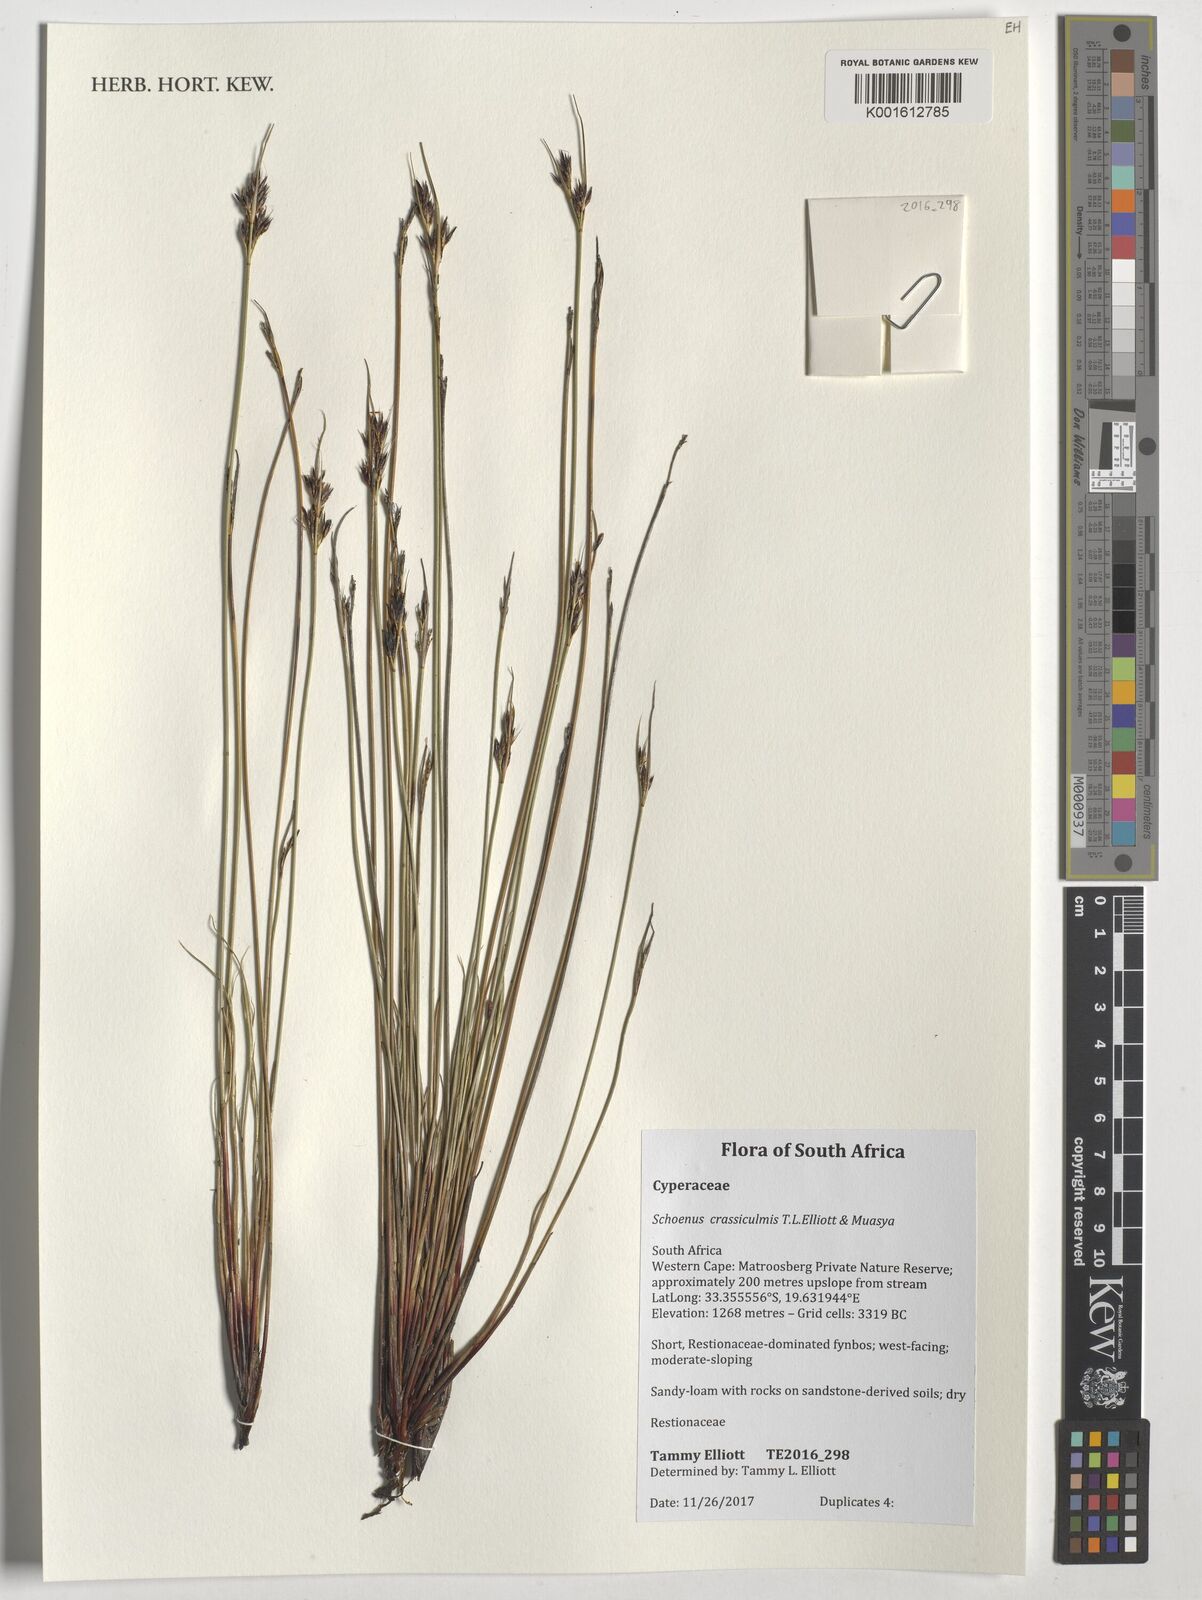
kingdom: Plantae
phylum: Tracheophyta
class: Liliopsida
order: Poales
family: Cyperaceae
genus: Schoenus
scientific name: Schoenus crassiculmis
